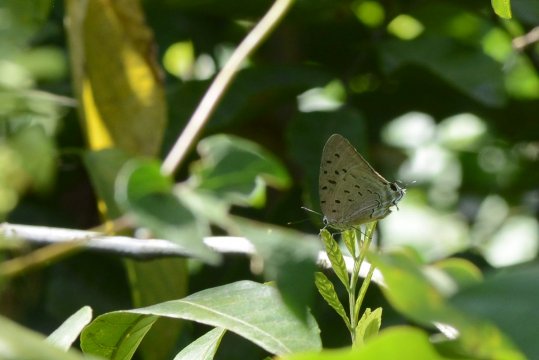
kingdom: Animalia
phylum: Arthropoda
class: Insecta
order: Lepidoptera
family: Lycaenidae
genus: Pseudolycaena
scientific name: Pseudolycaena damo
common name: Sky-blue Hairstreak
